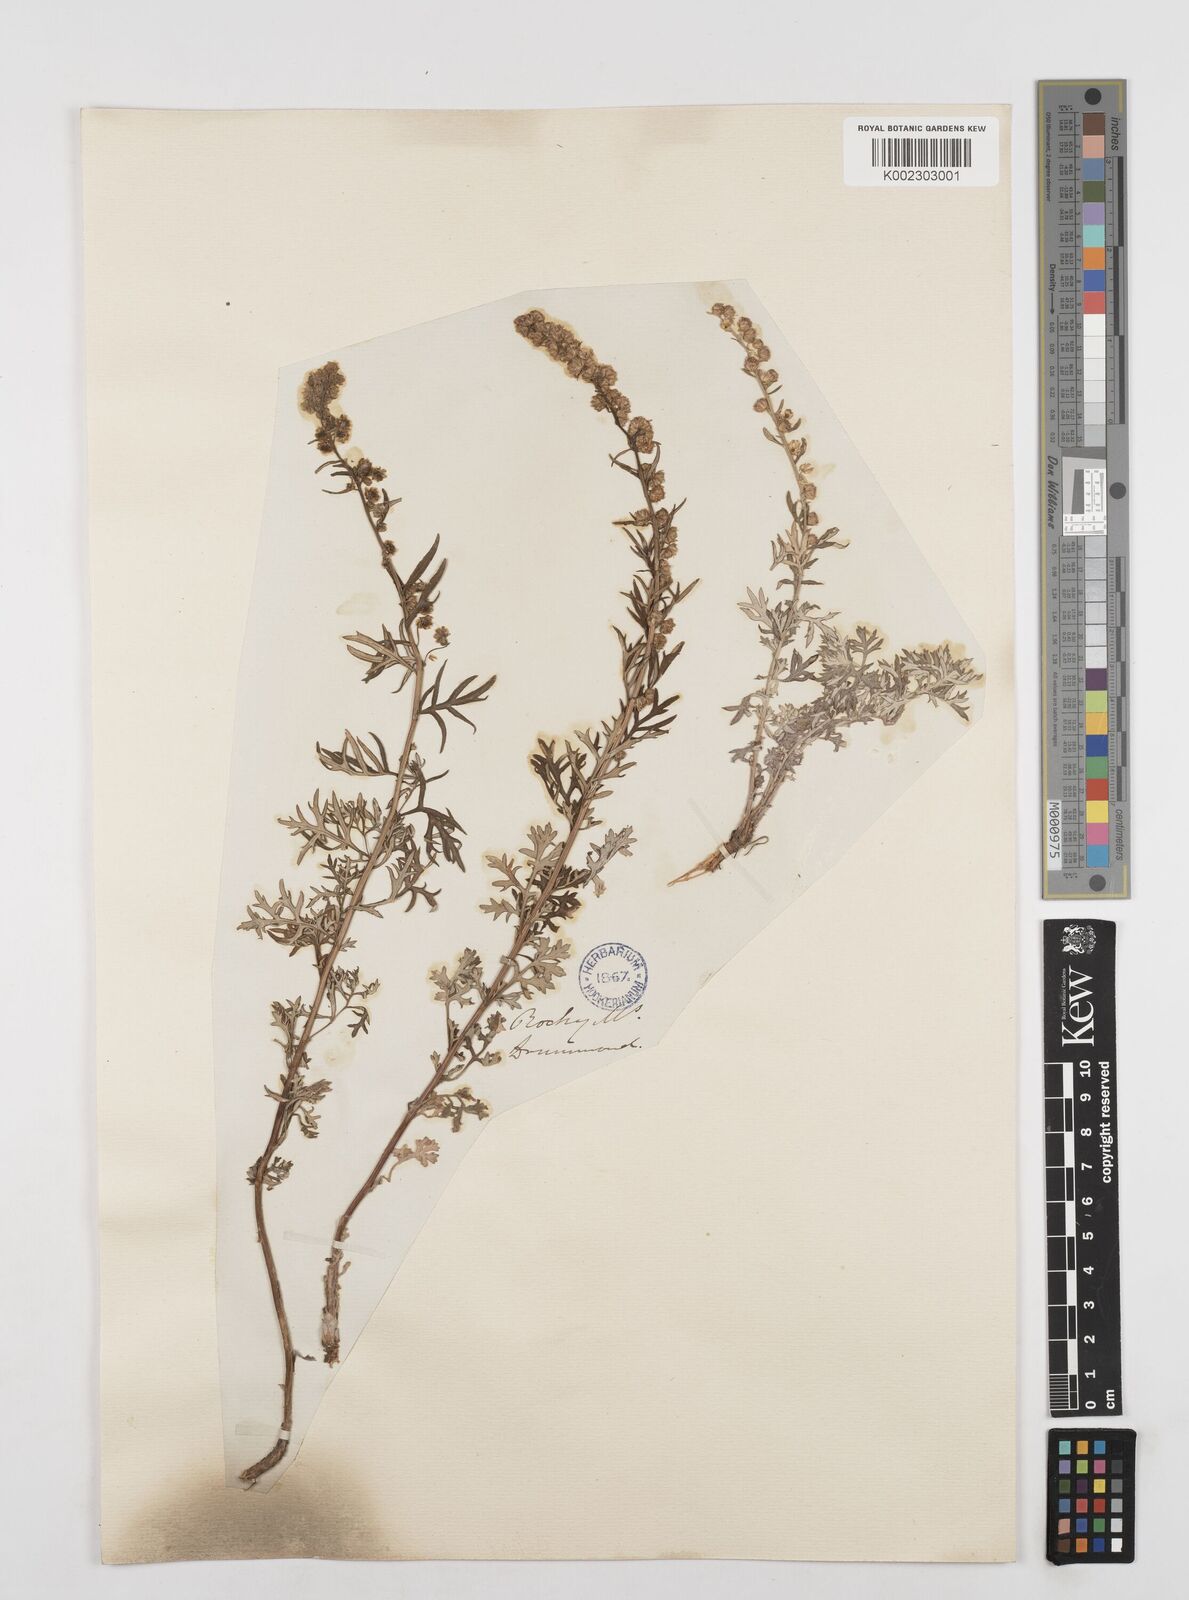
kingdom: Plantae
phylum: Tracheophyta
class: Magnoliopsida
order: Asterales
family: Asteraceae
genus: Artemisia
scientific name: Artemisia michauxiana
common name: Lemon sagewort
